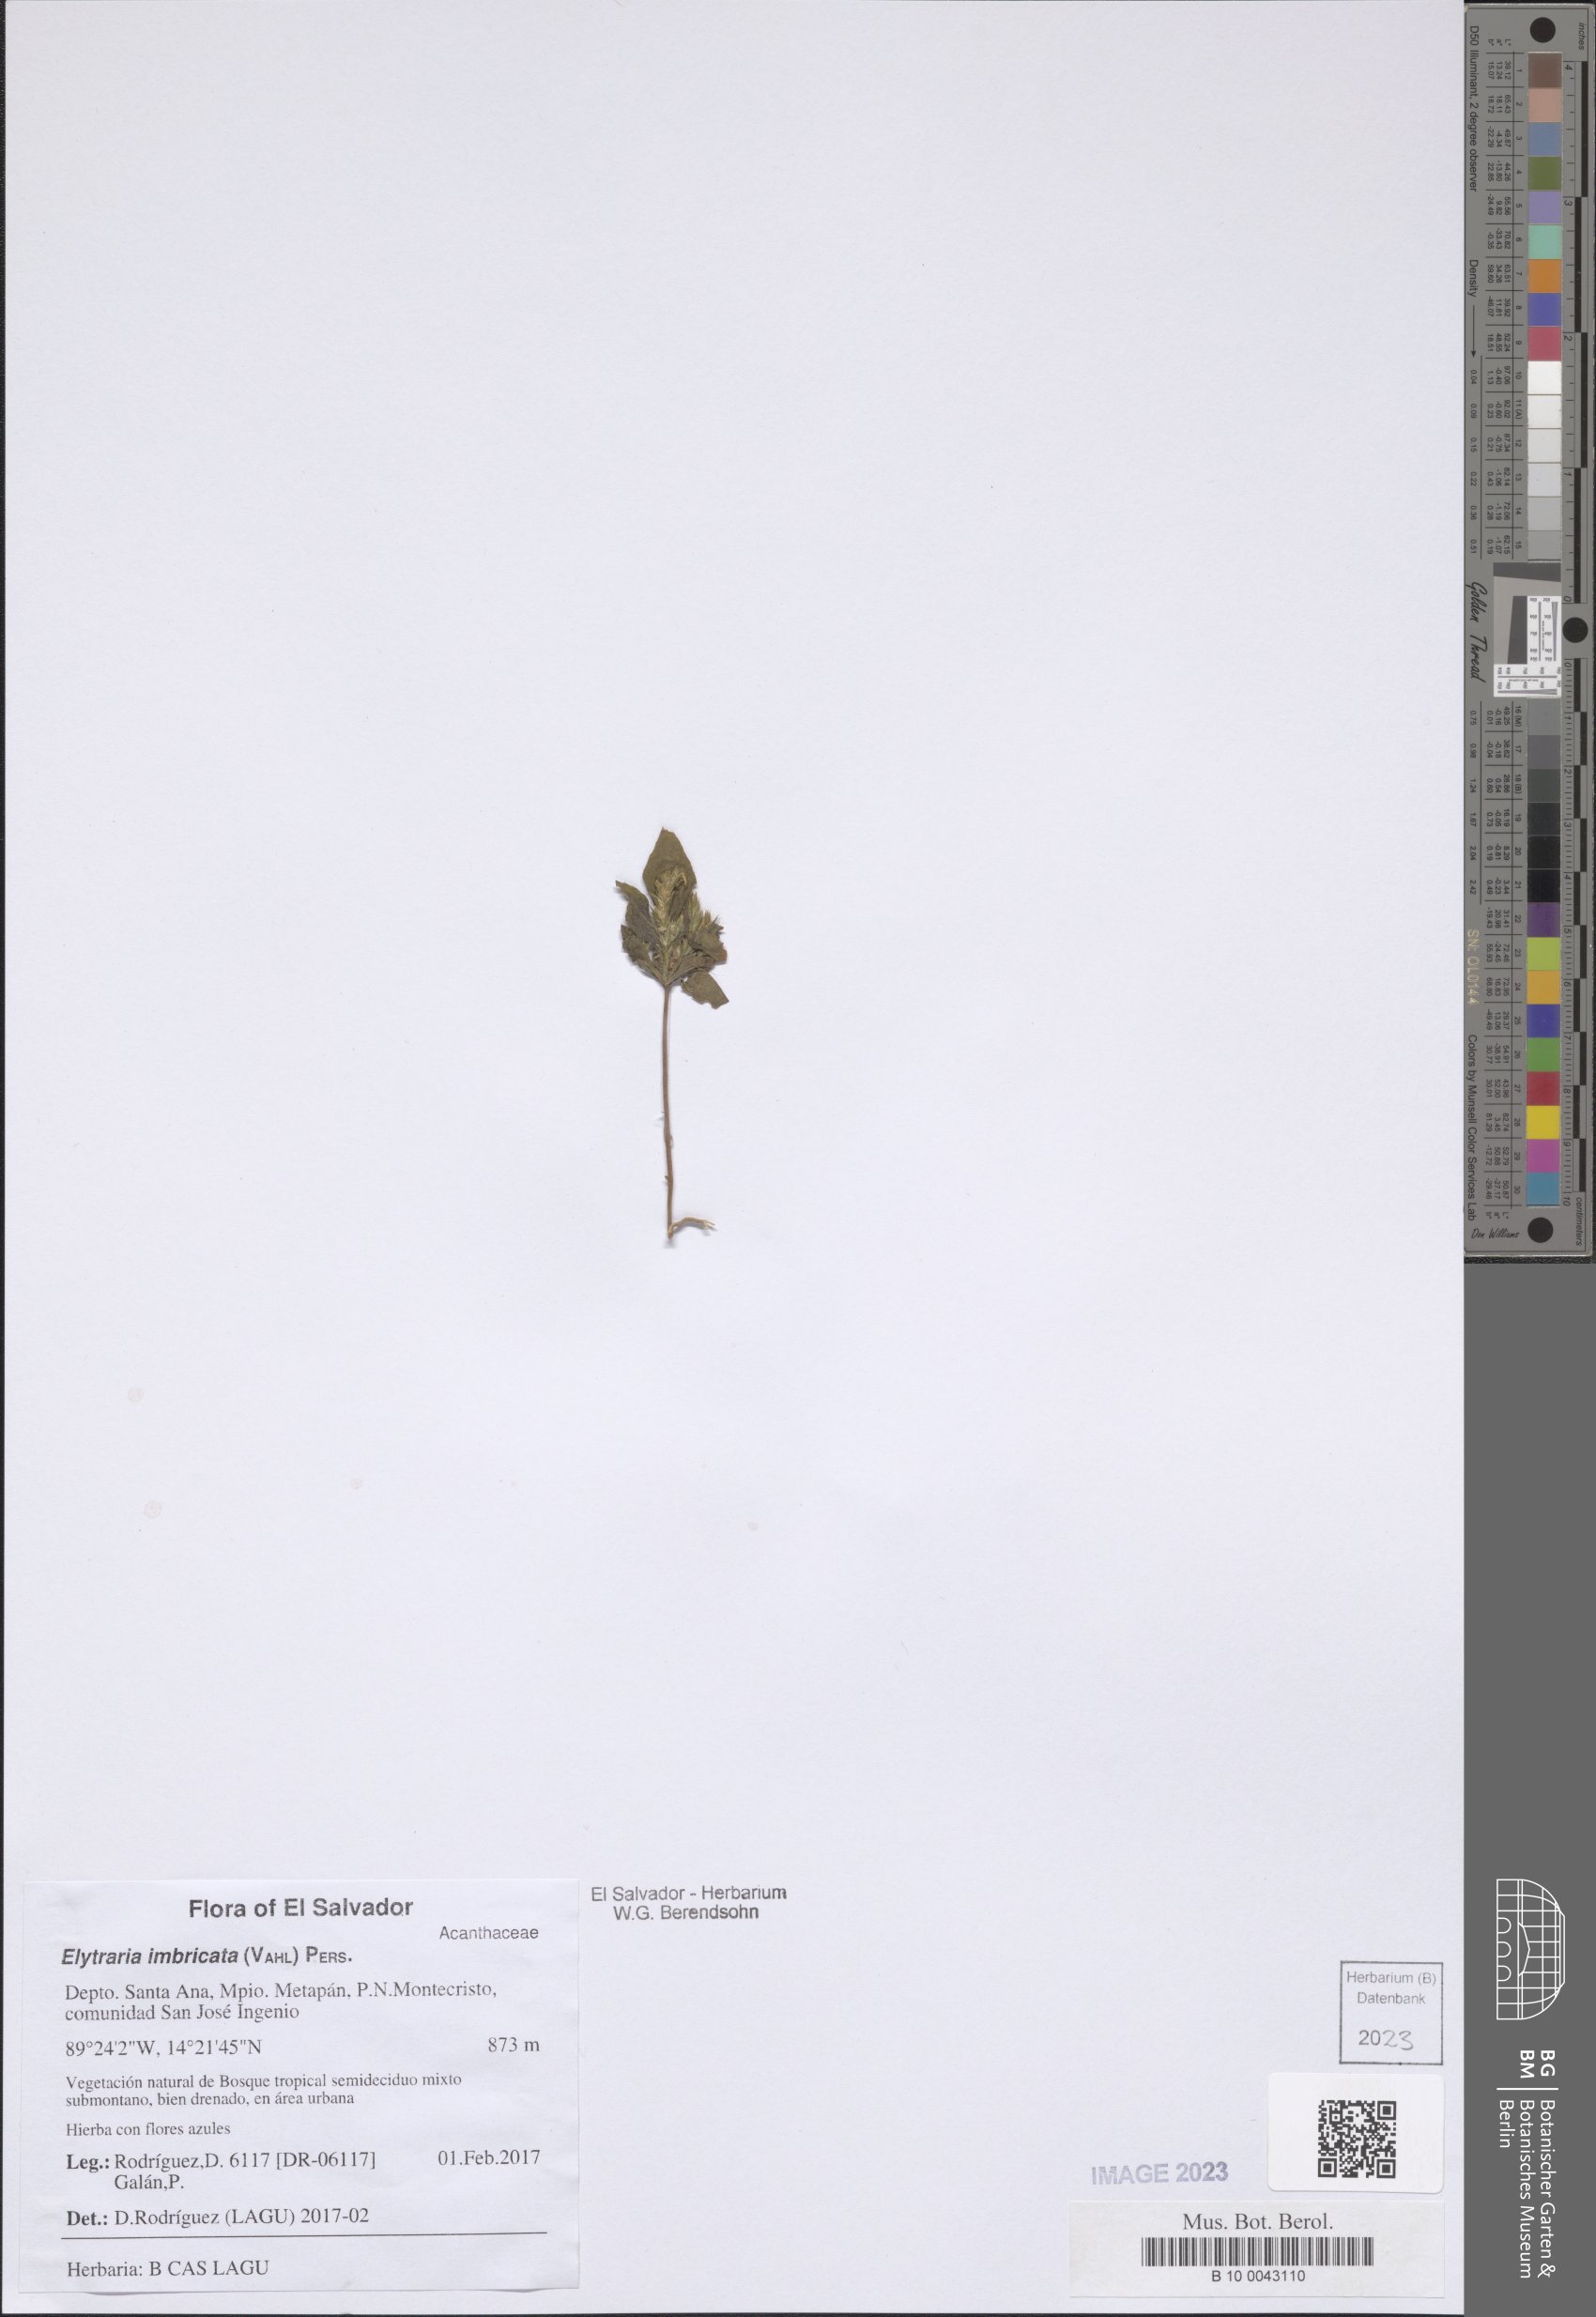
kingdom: Plantae
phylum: Tracheophyta
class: Magnoliopsida
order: Lamiales
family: Acanthaceae
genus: Elytraria
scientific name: Elytraria imbricata
